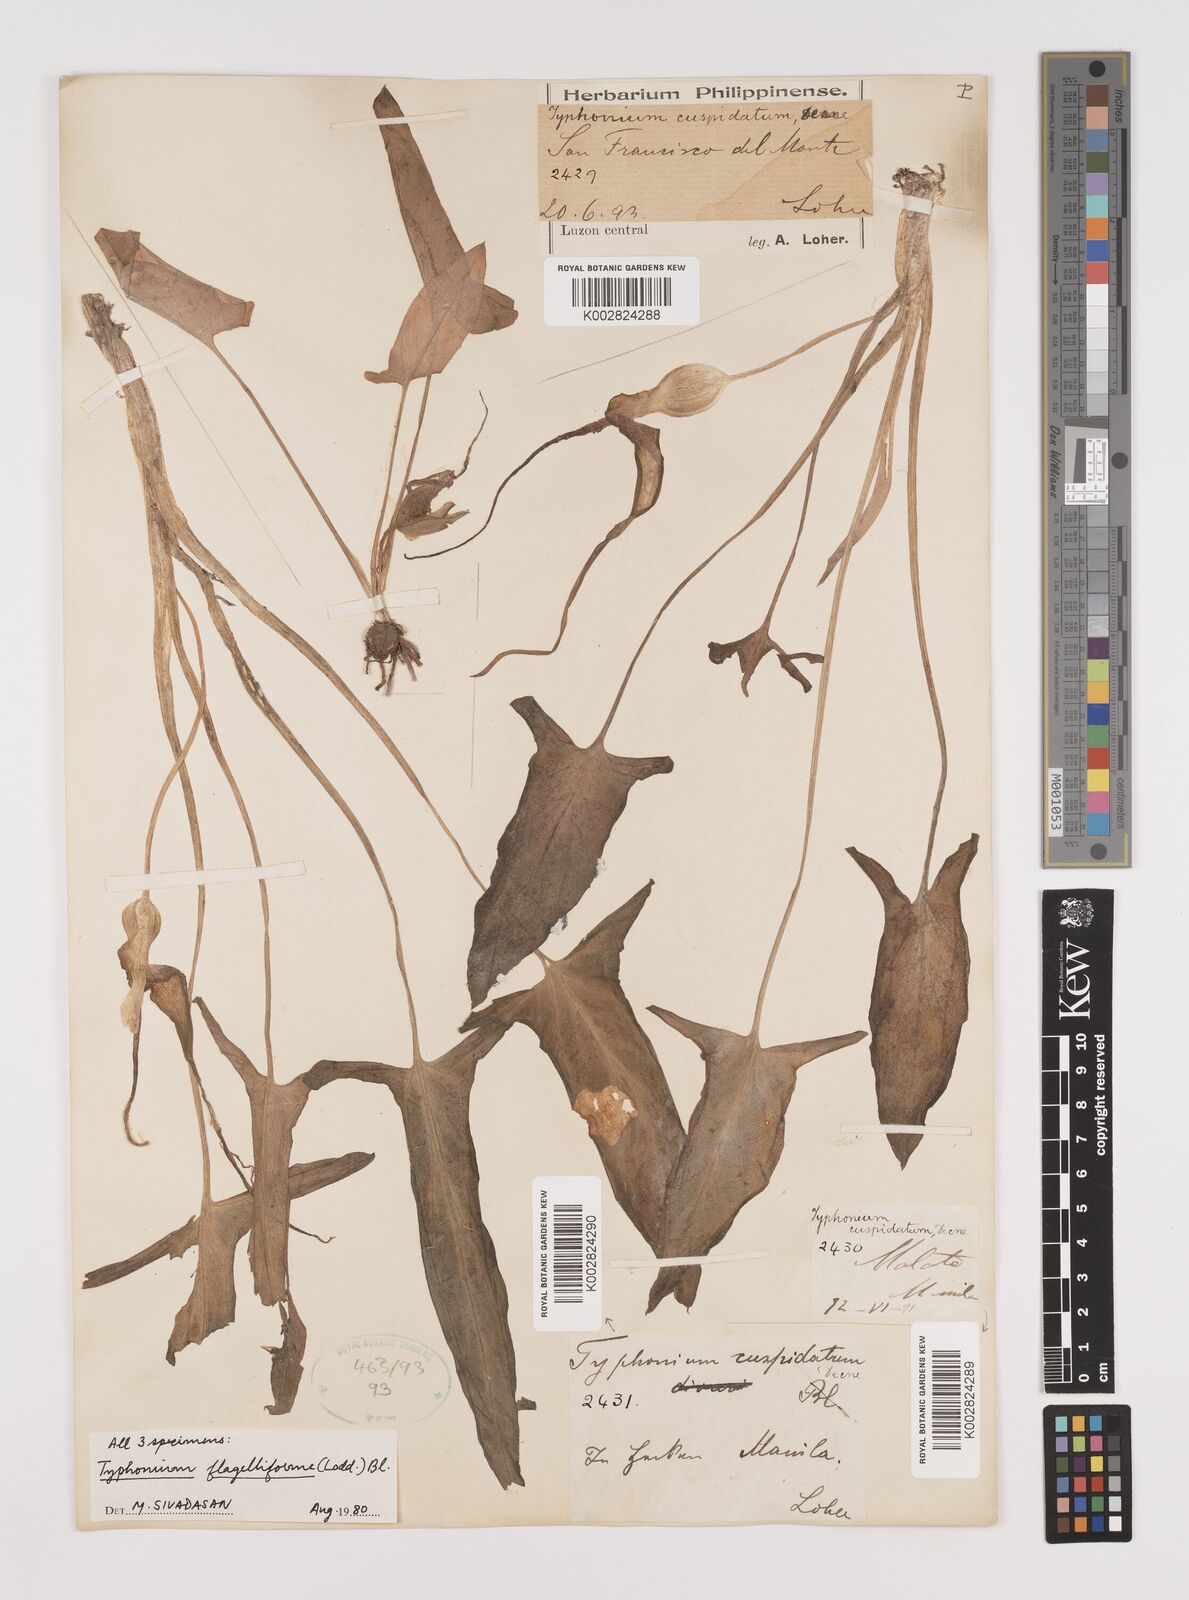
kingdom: Plantae
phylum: Tracheophyta
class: Liliopsida
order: Alismatales
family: Araceae
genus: Typhonium
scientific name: Typhonium flagelliforme
